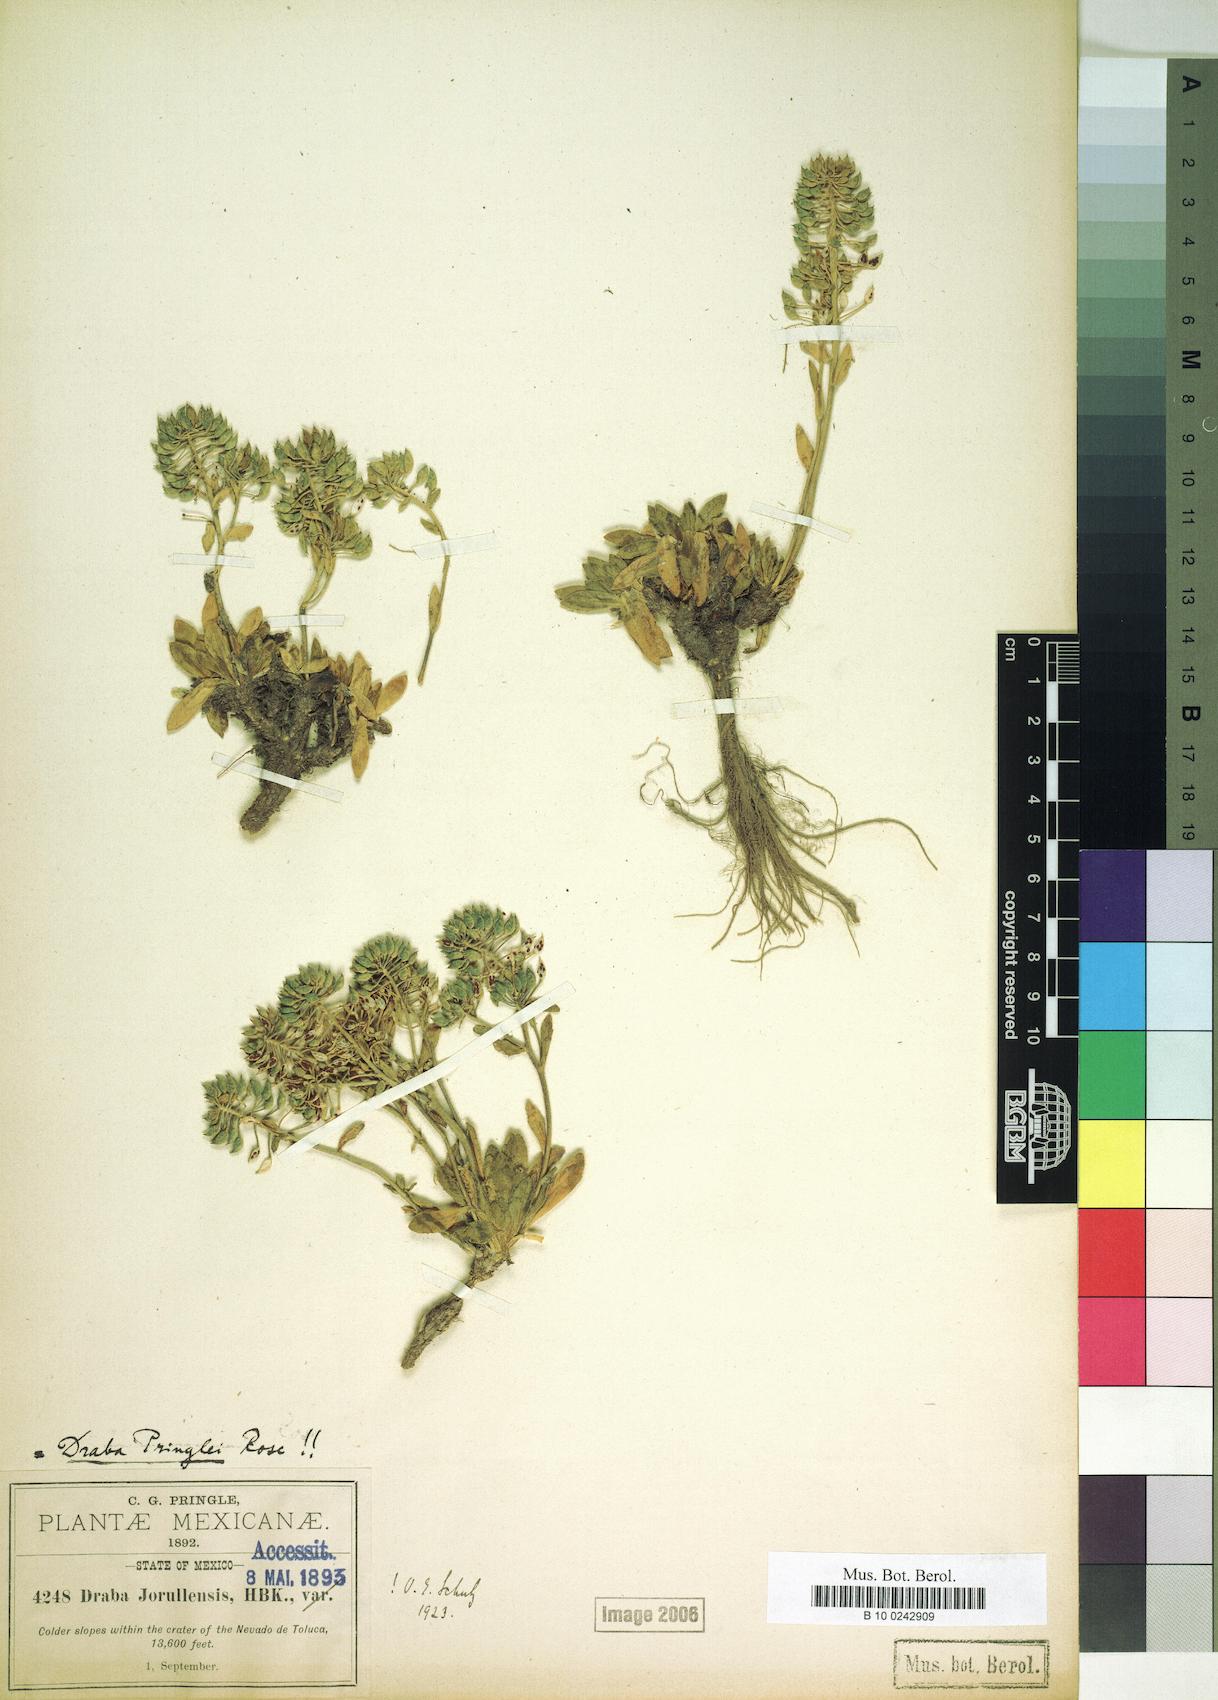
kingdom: Plantae
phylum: Tracheophyta
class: Magnoliopsida
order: Brassicales
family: Brassicaceae
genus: Draba
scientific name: Draba jorullensis
